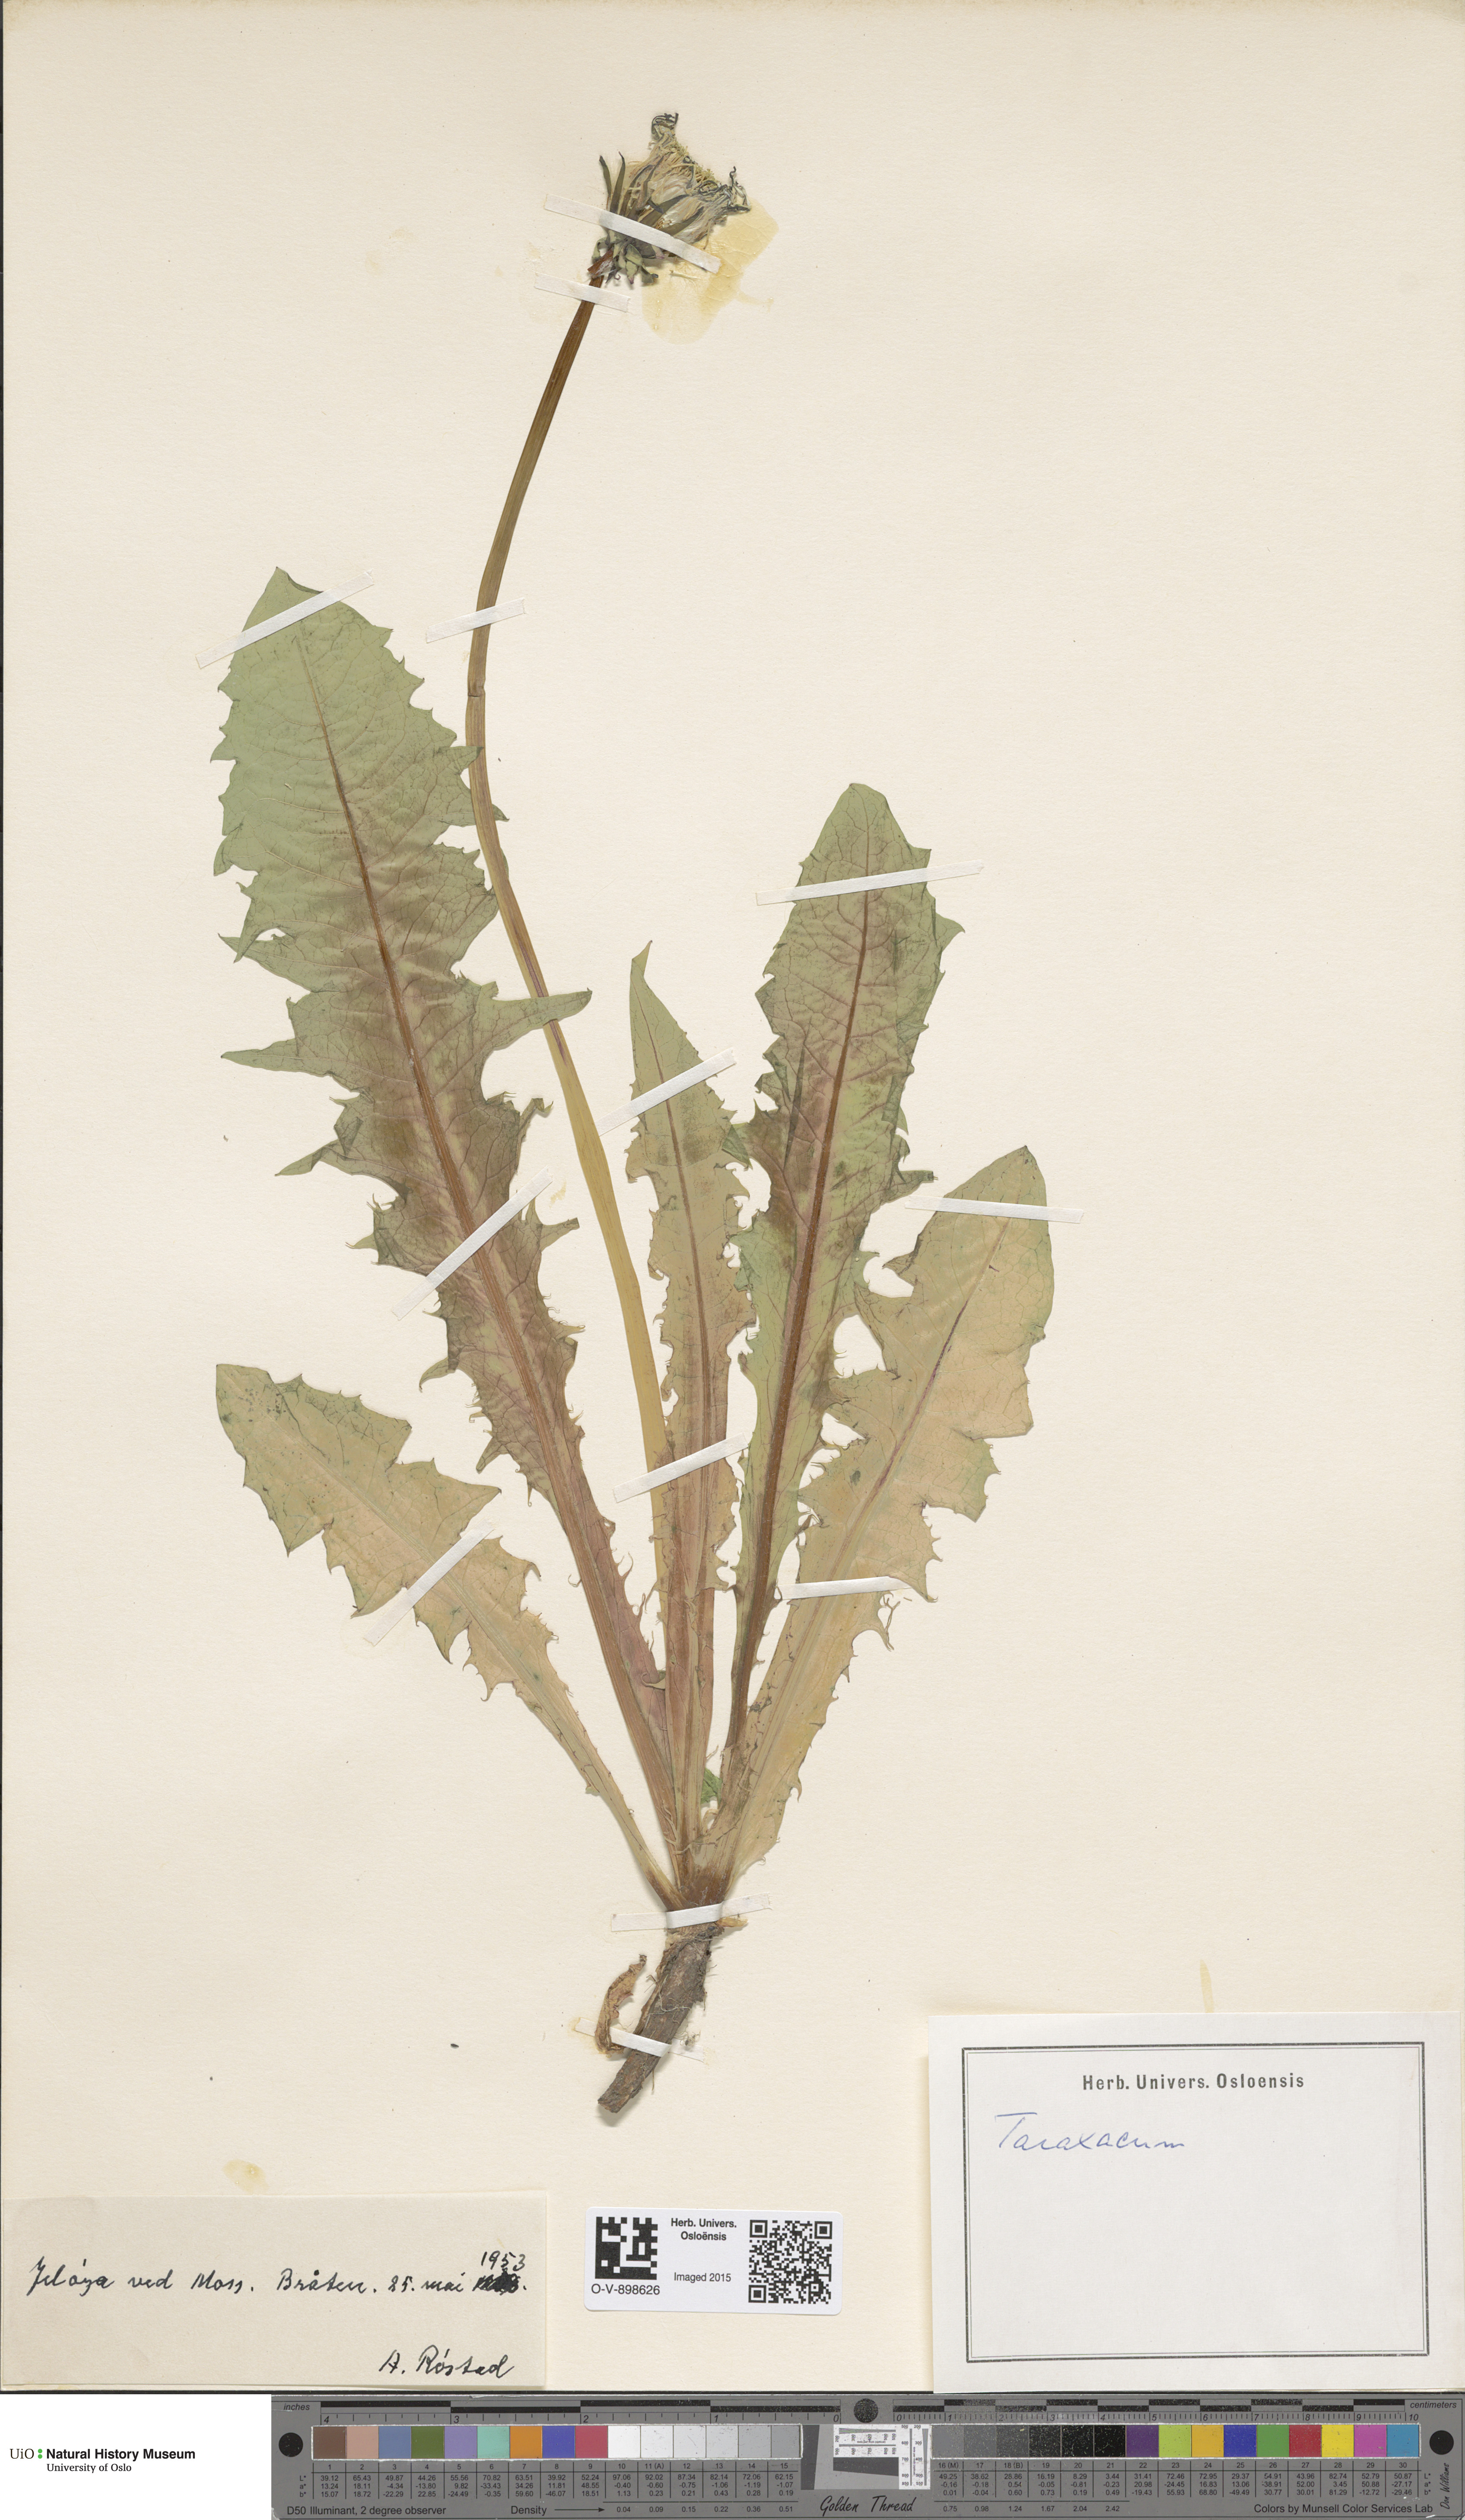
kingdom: Plantae
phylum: Tracheophyta
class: Magnoliopsida
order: Asterales
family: Asteraceae
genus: Taraxacum
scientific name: Taraxacum
